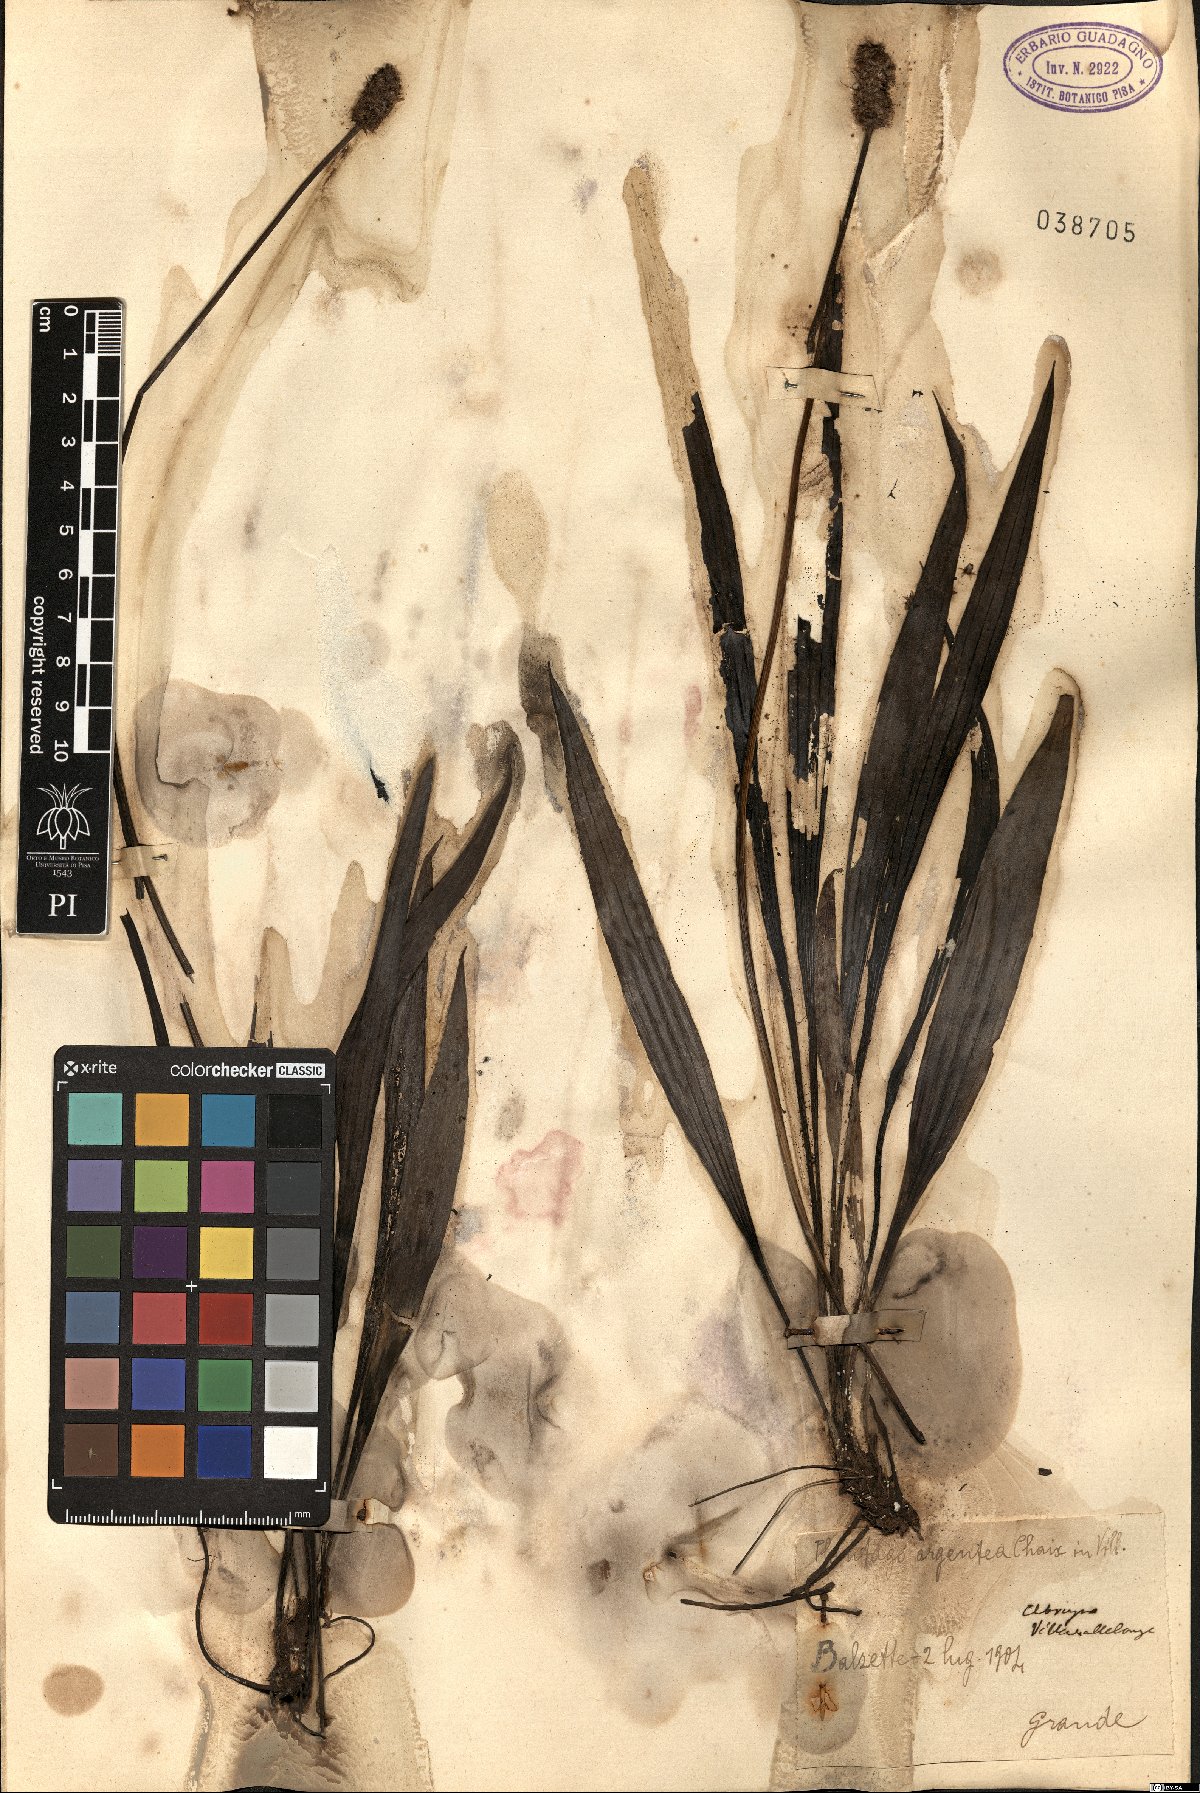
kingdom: Plantae
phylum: Tracheophyta
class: Magnoliopsida
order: Lamiales
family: Plantaginaceae
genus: Plantago
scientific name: Plantago argentea
